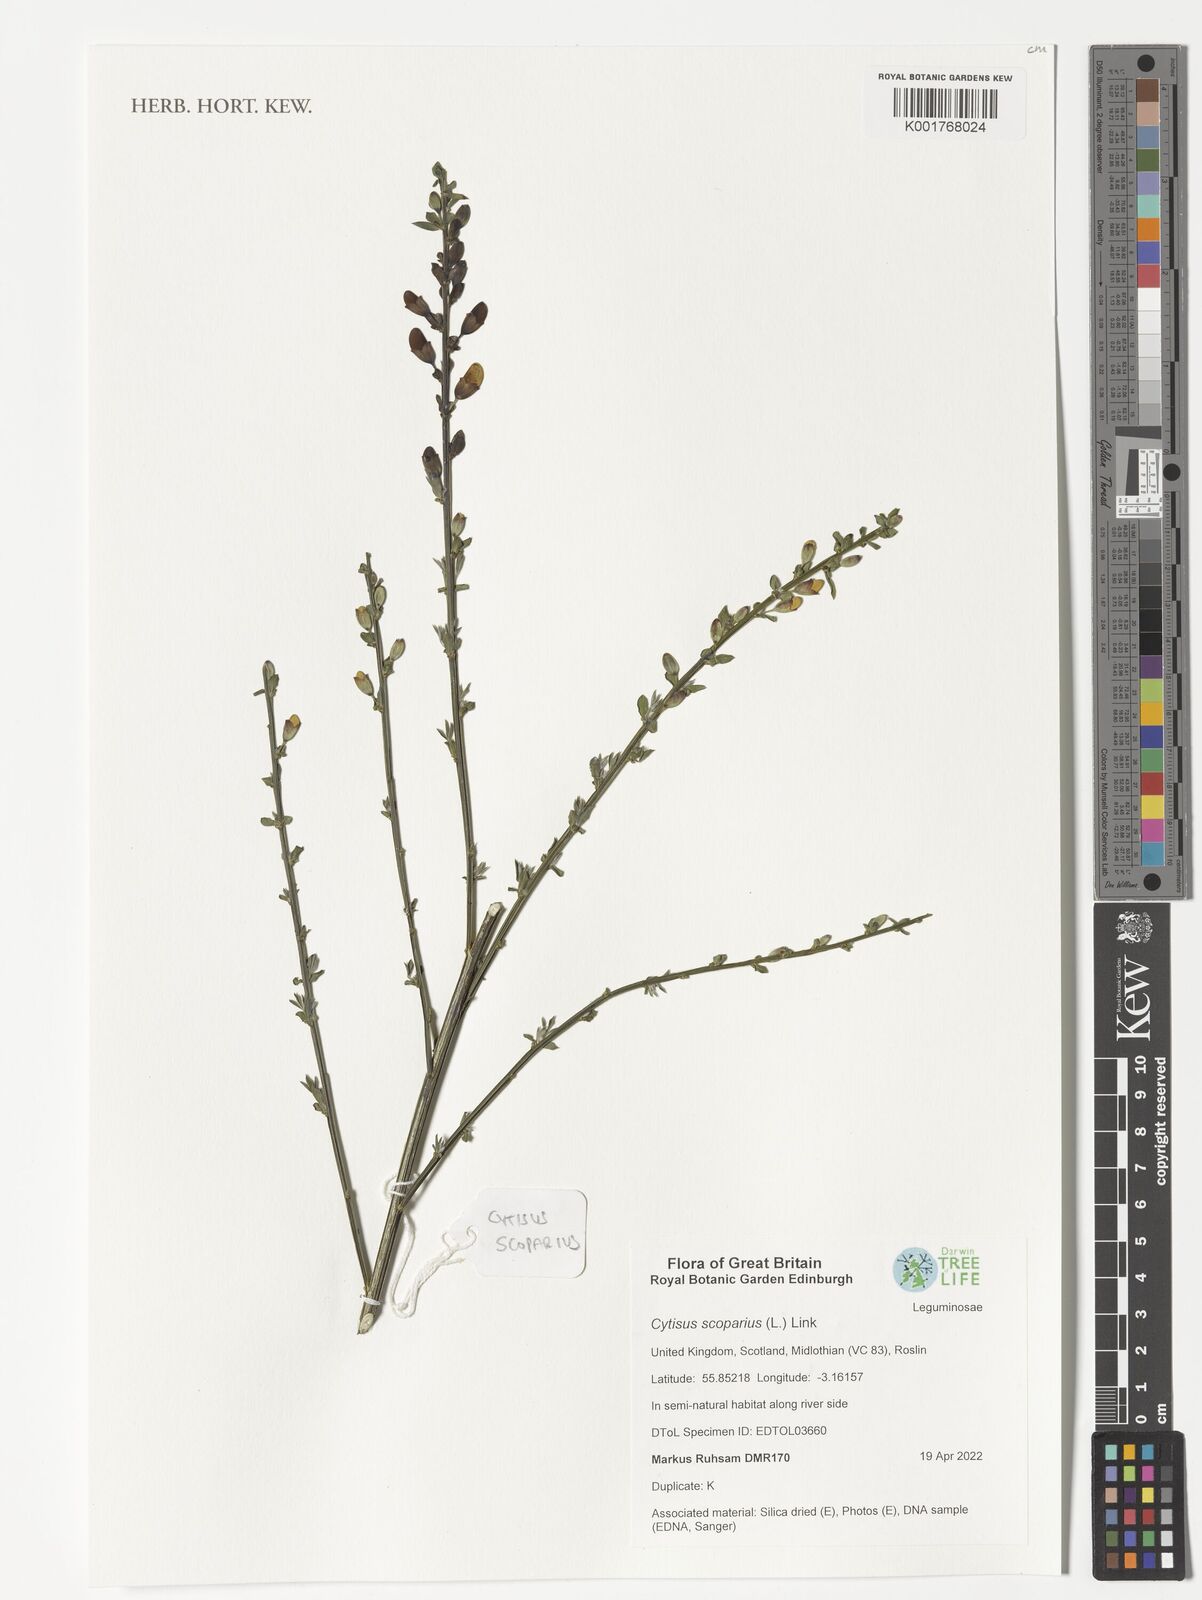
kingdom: Plantae
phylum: Tracheophyta
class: Magnoliopsida
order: Fabales
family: Fabaceae
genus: Cytisus
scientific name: Cytisus scoparius
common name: Scotch broom
